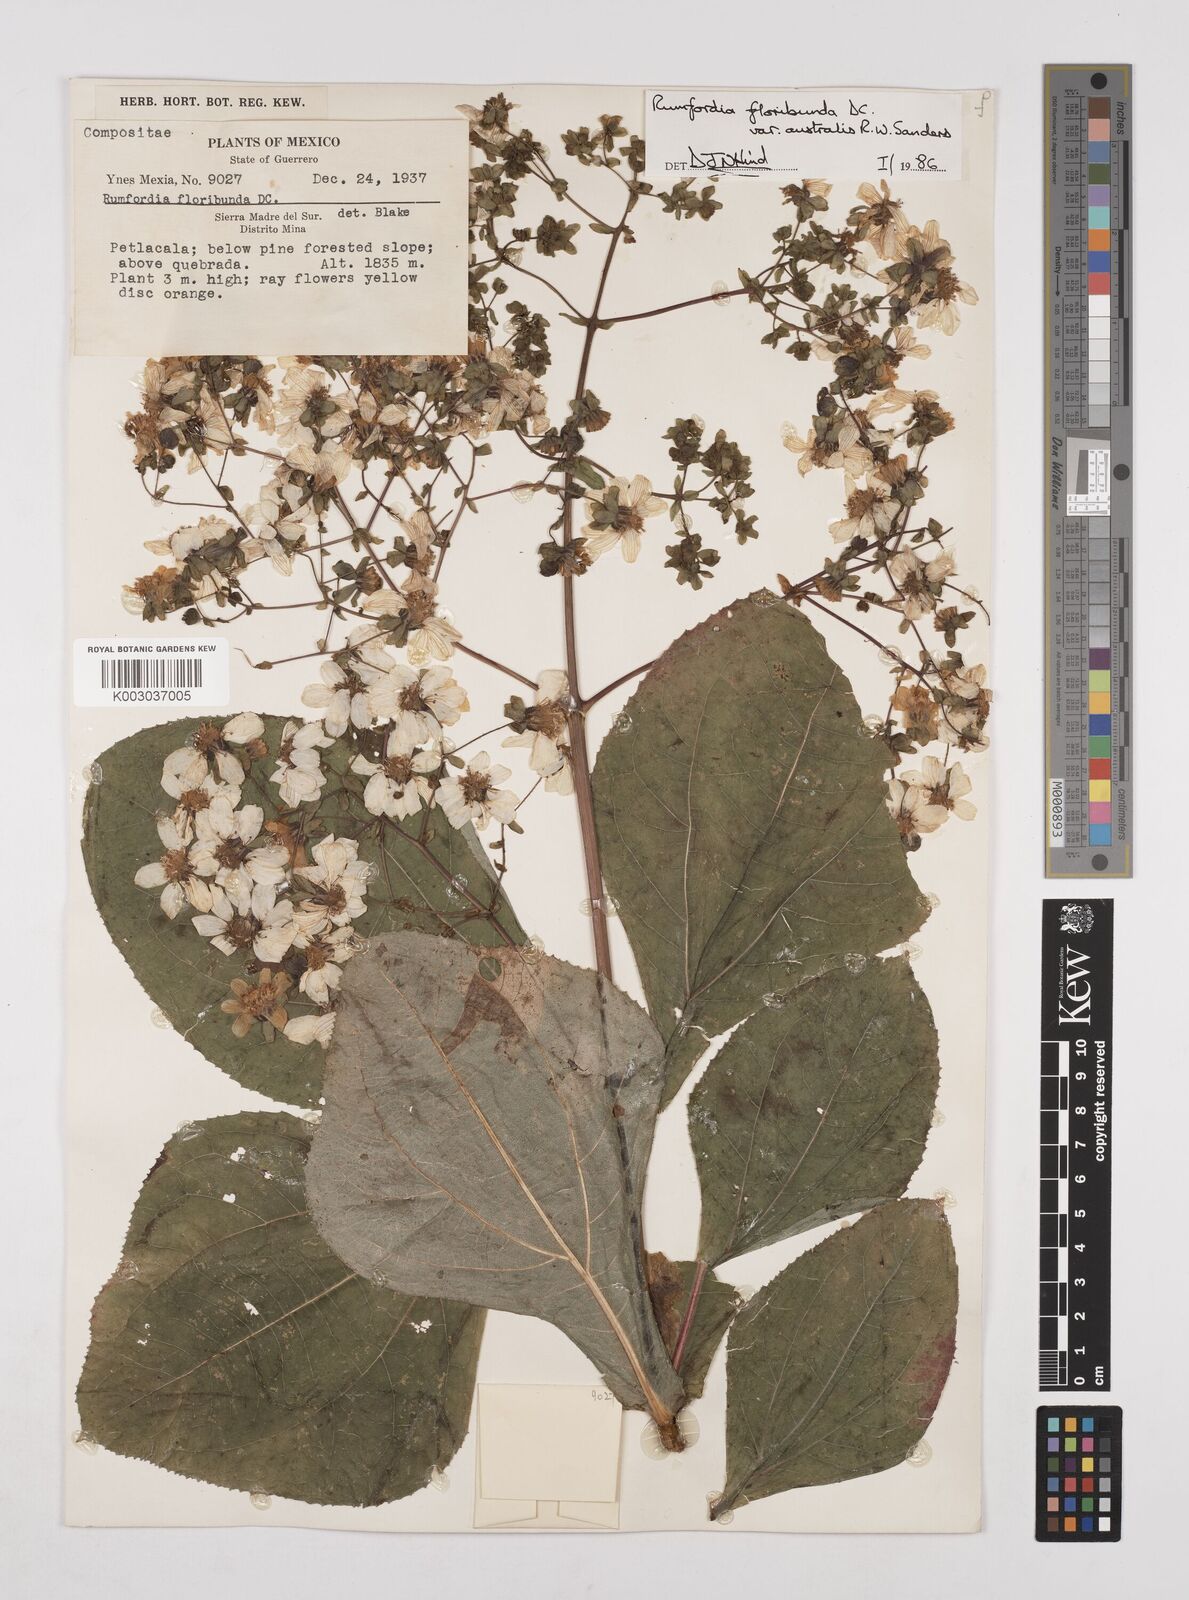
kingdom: Plantae
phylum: Tracheophyta
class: Magnoliopsida
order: Asterales
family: Asteraceae
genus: Rumfordia
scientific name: Rumfordia floribunda
